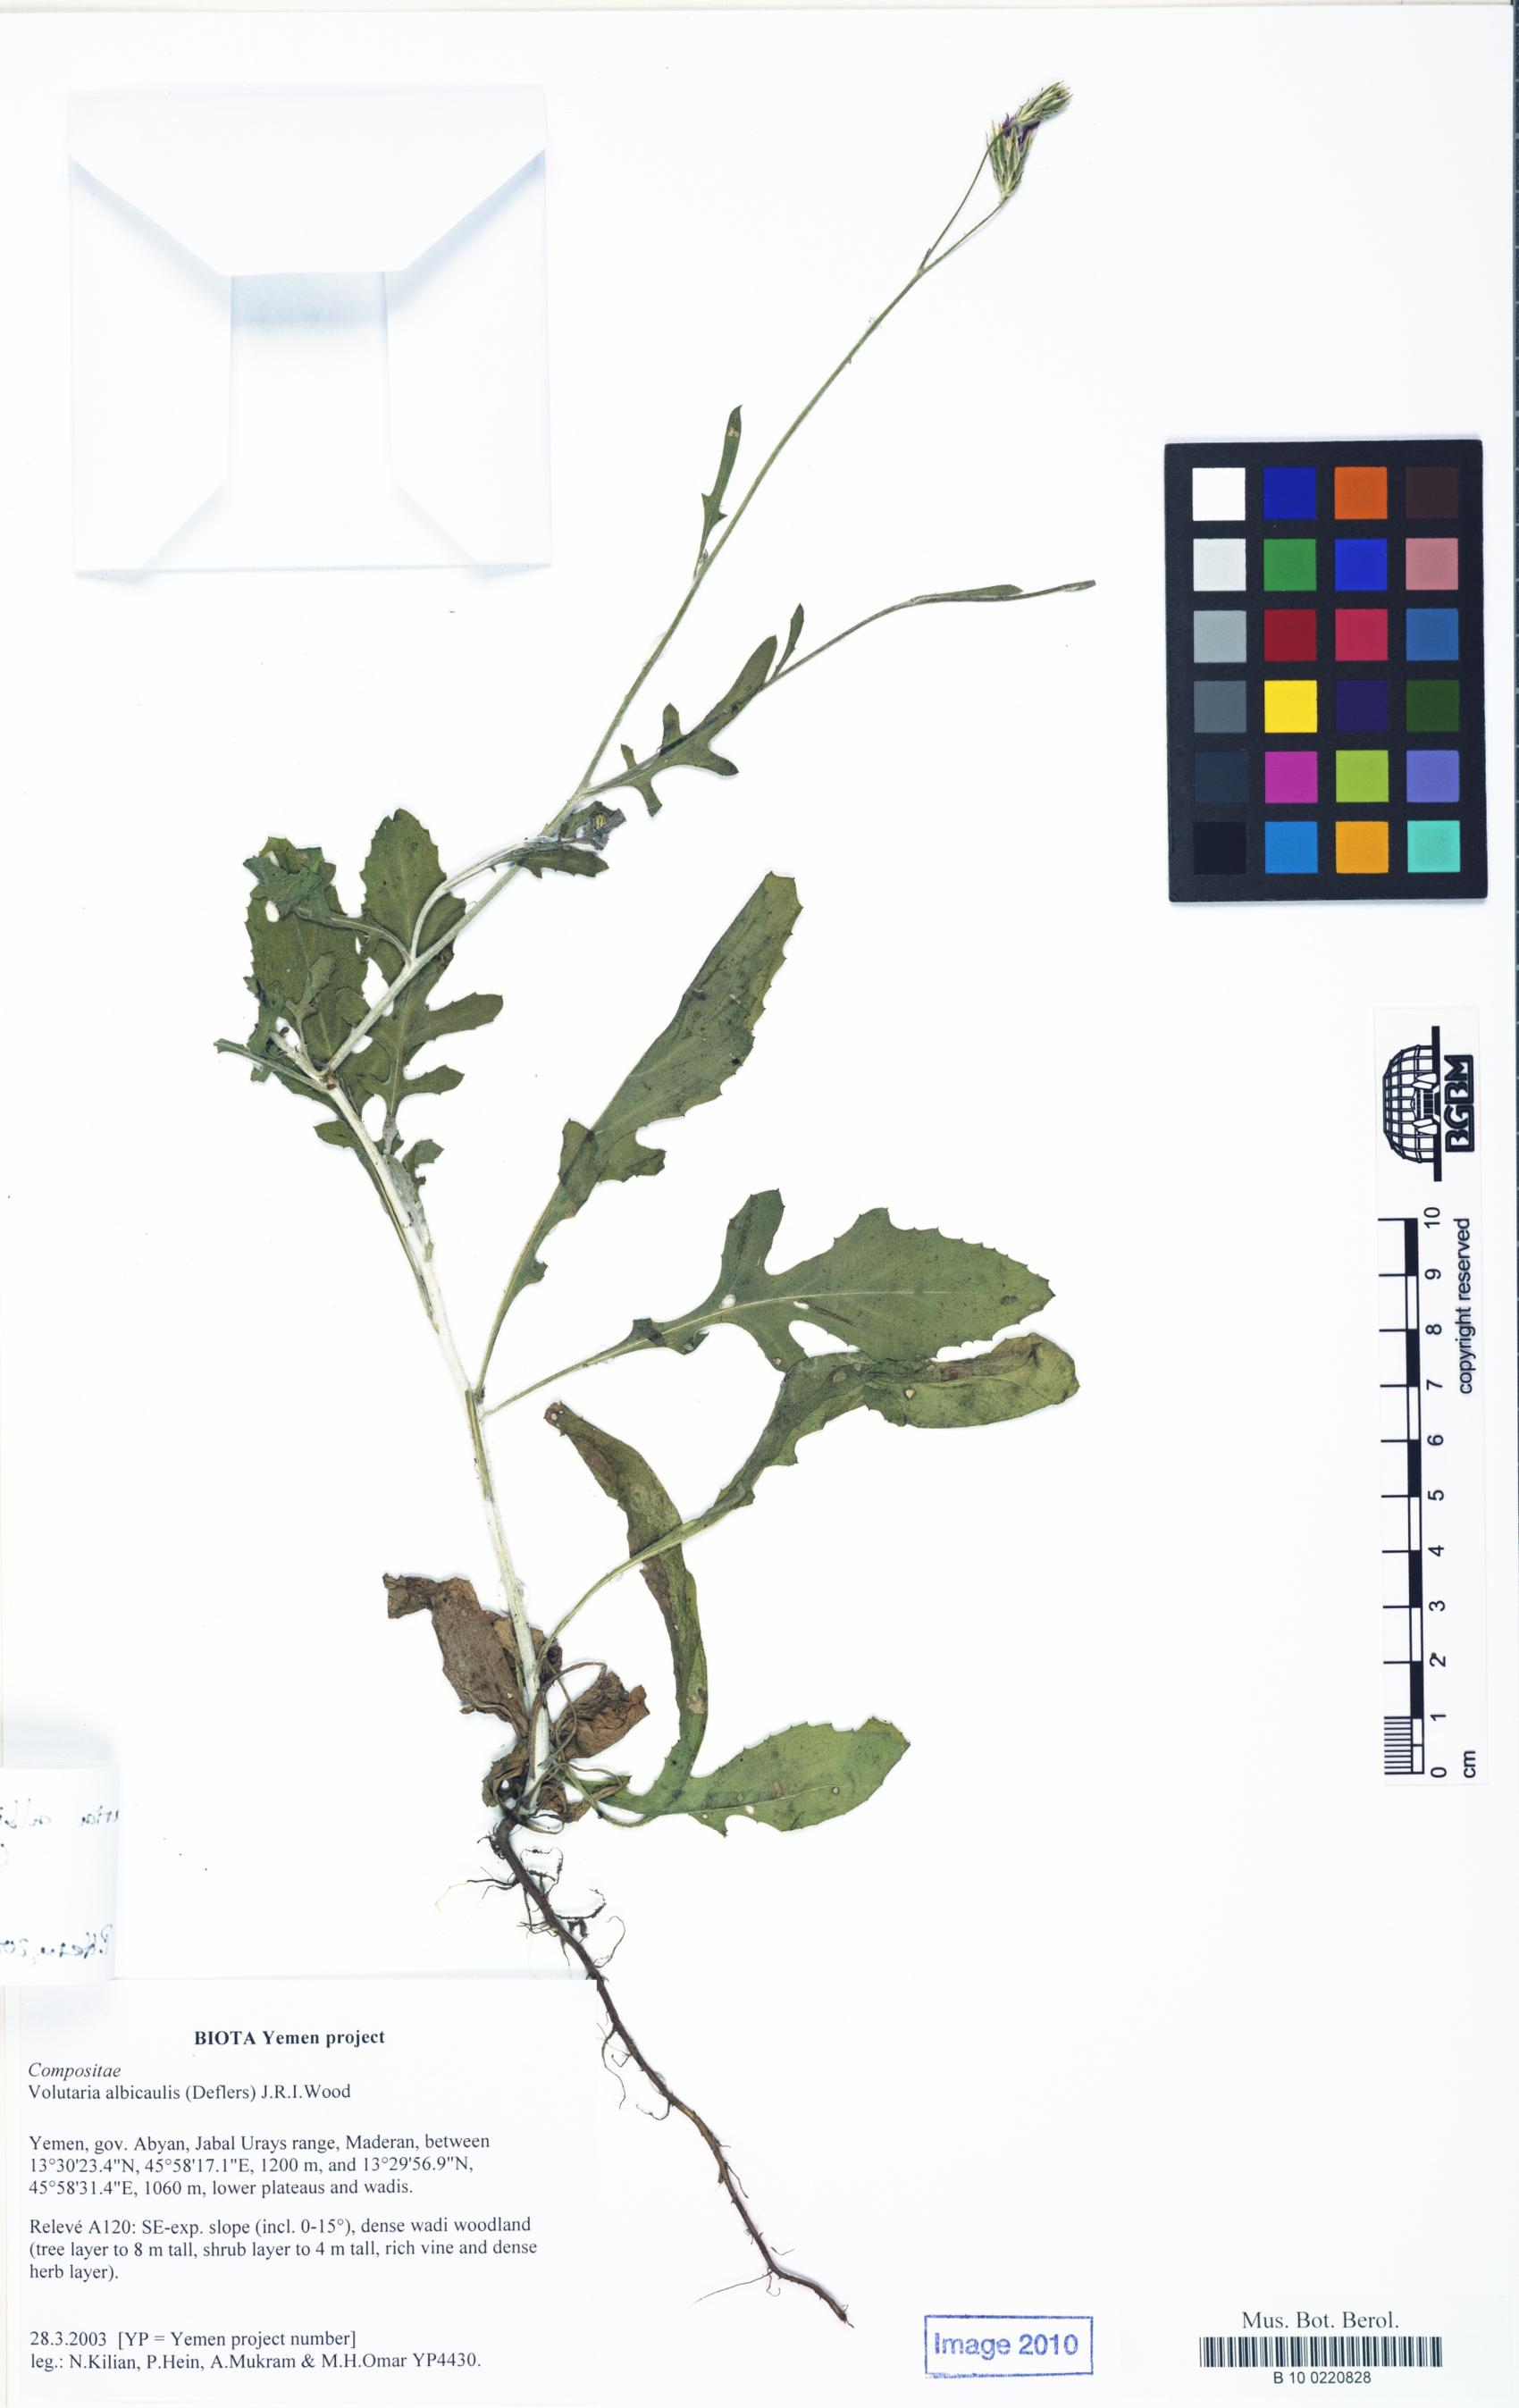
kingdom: Plantae
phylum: Tracheophyta
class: Magnoliopsida
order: Asterales
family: Asteraceae
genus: Volutaria
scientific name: Volutaria albicaulis
